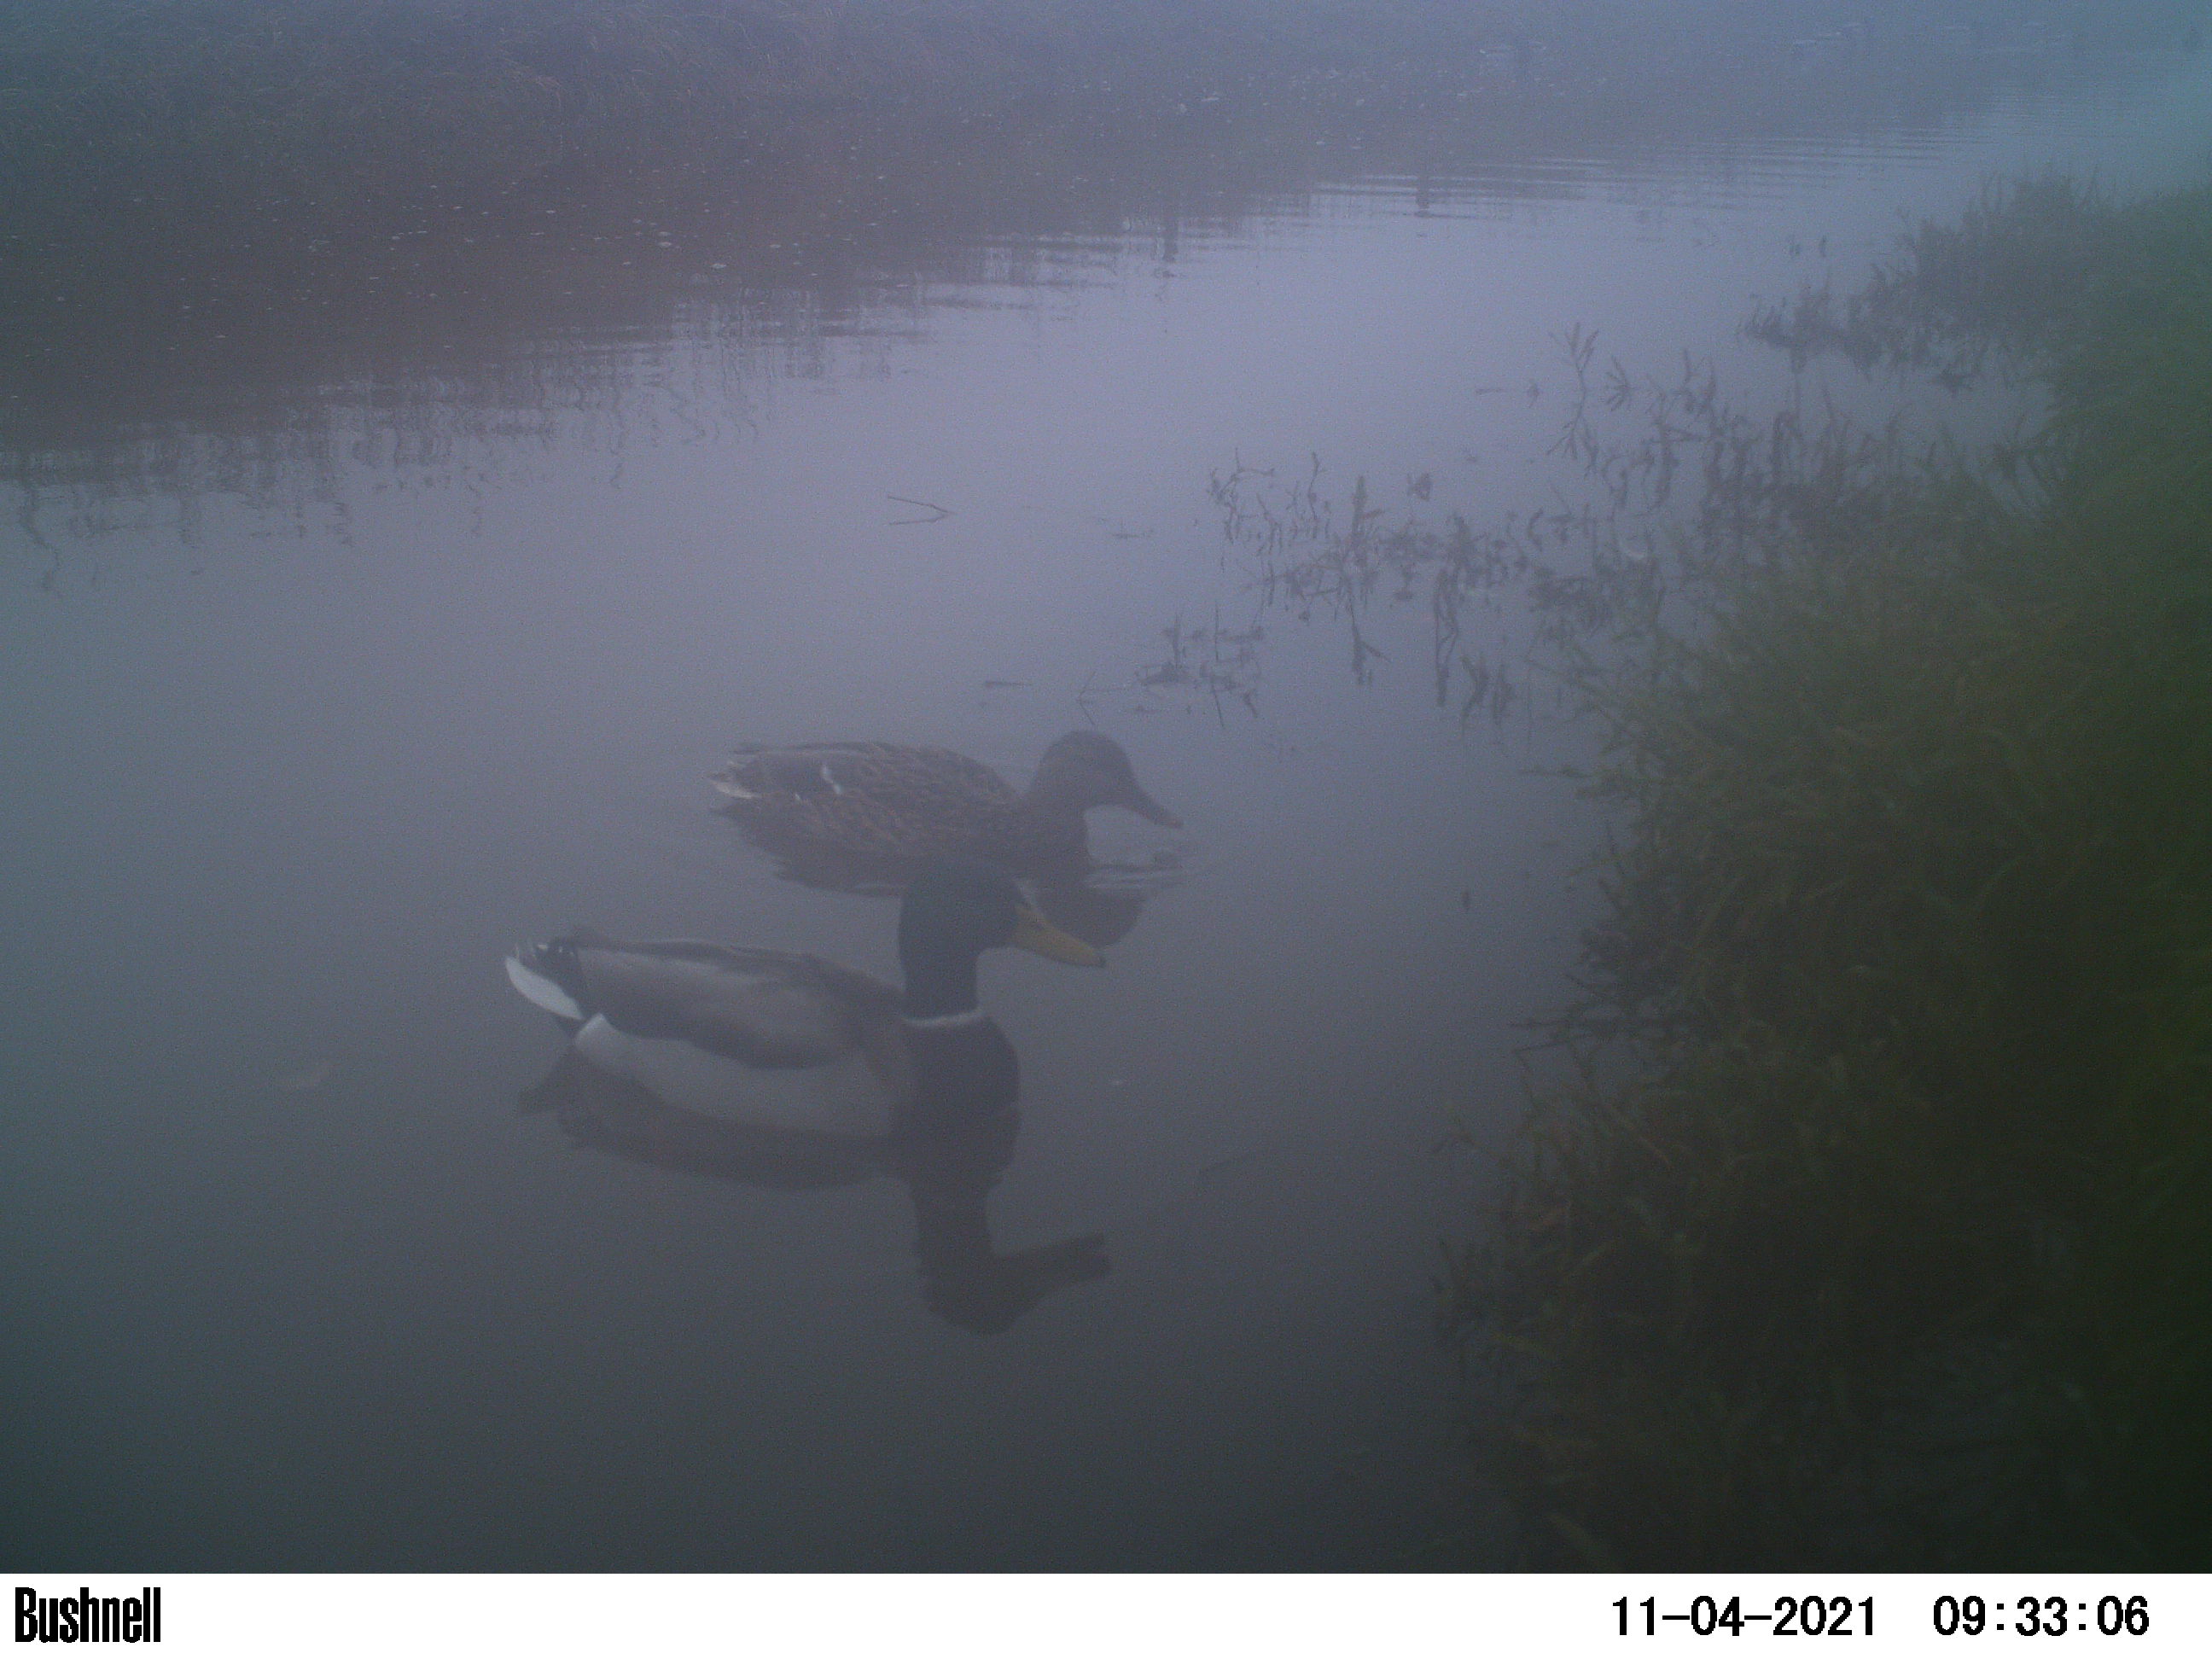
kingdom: Animalia
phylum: Chordata
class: Aves
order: Anseriformes
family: Anatidae
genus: Anas
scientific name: Anas
